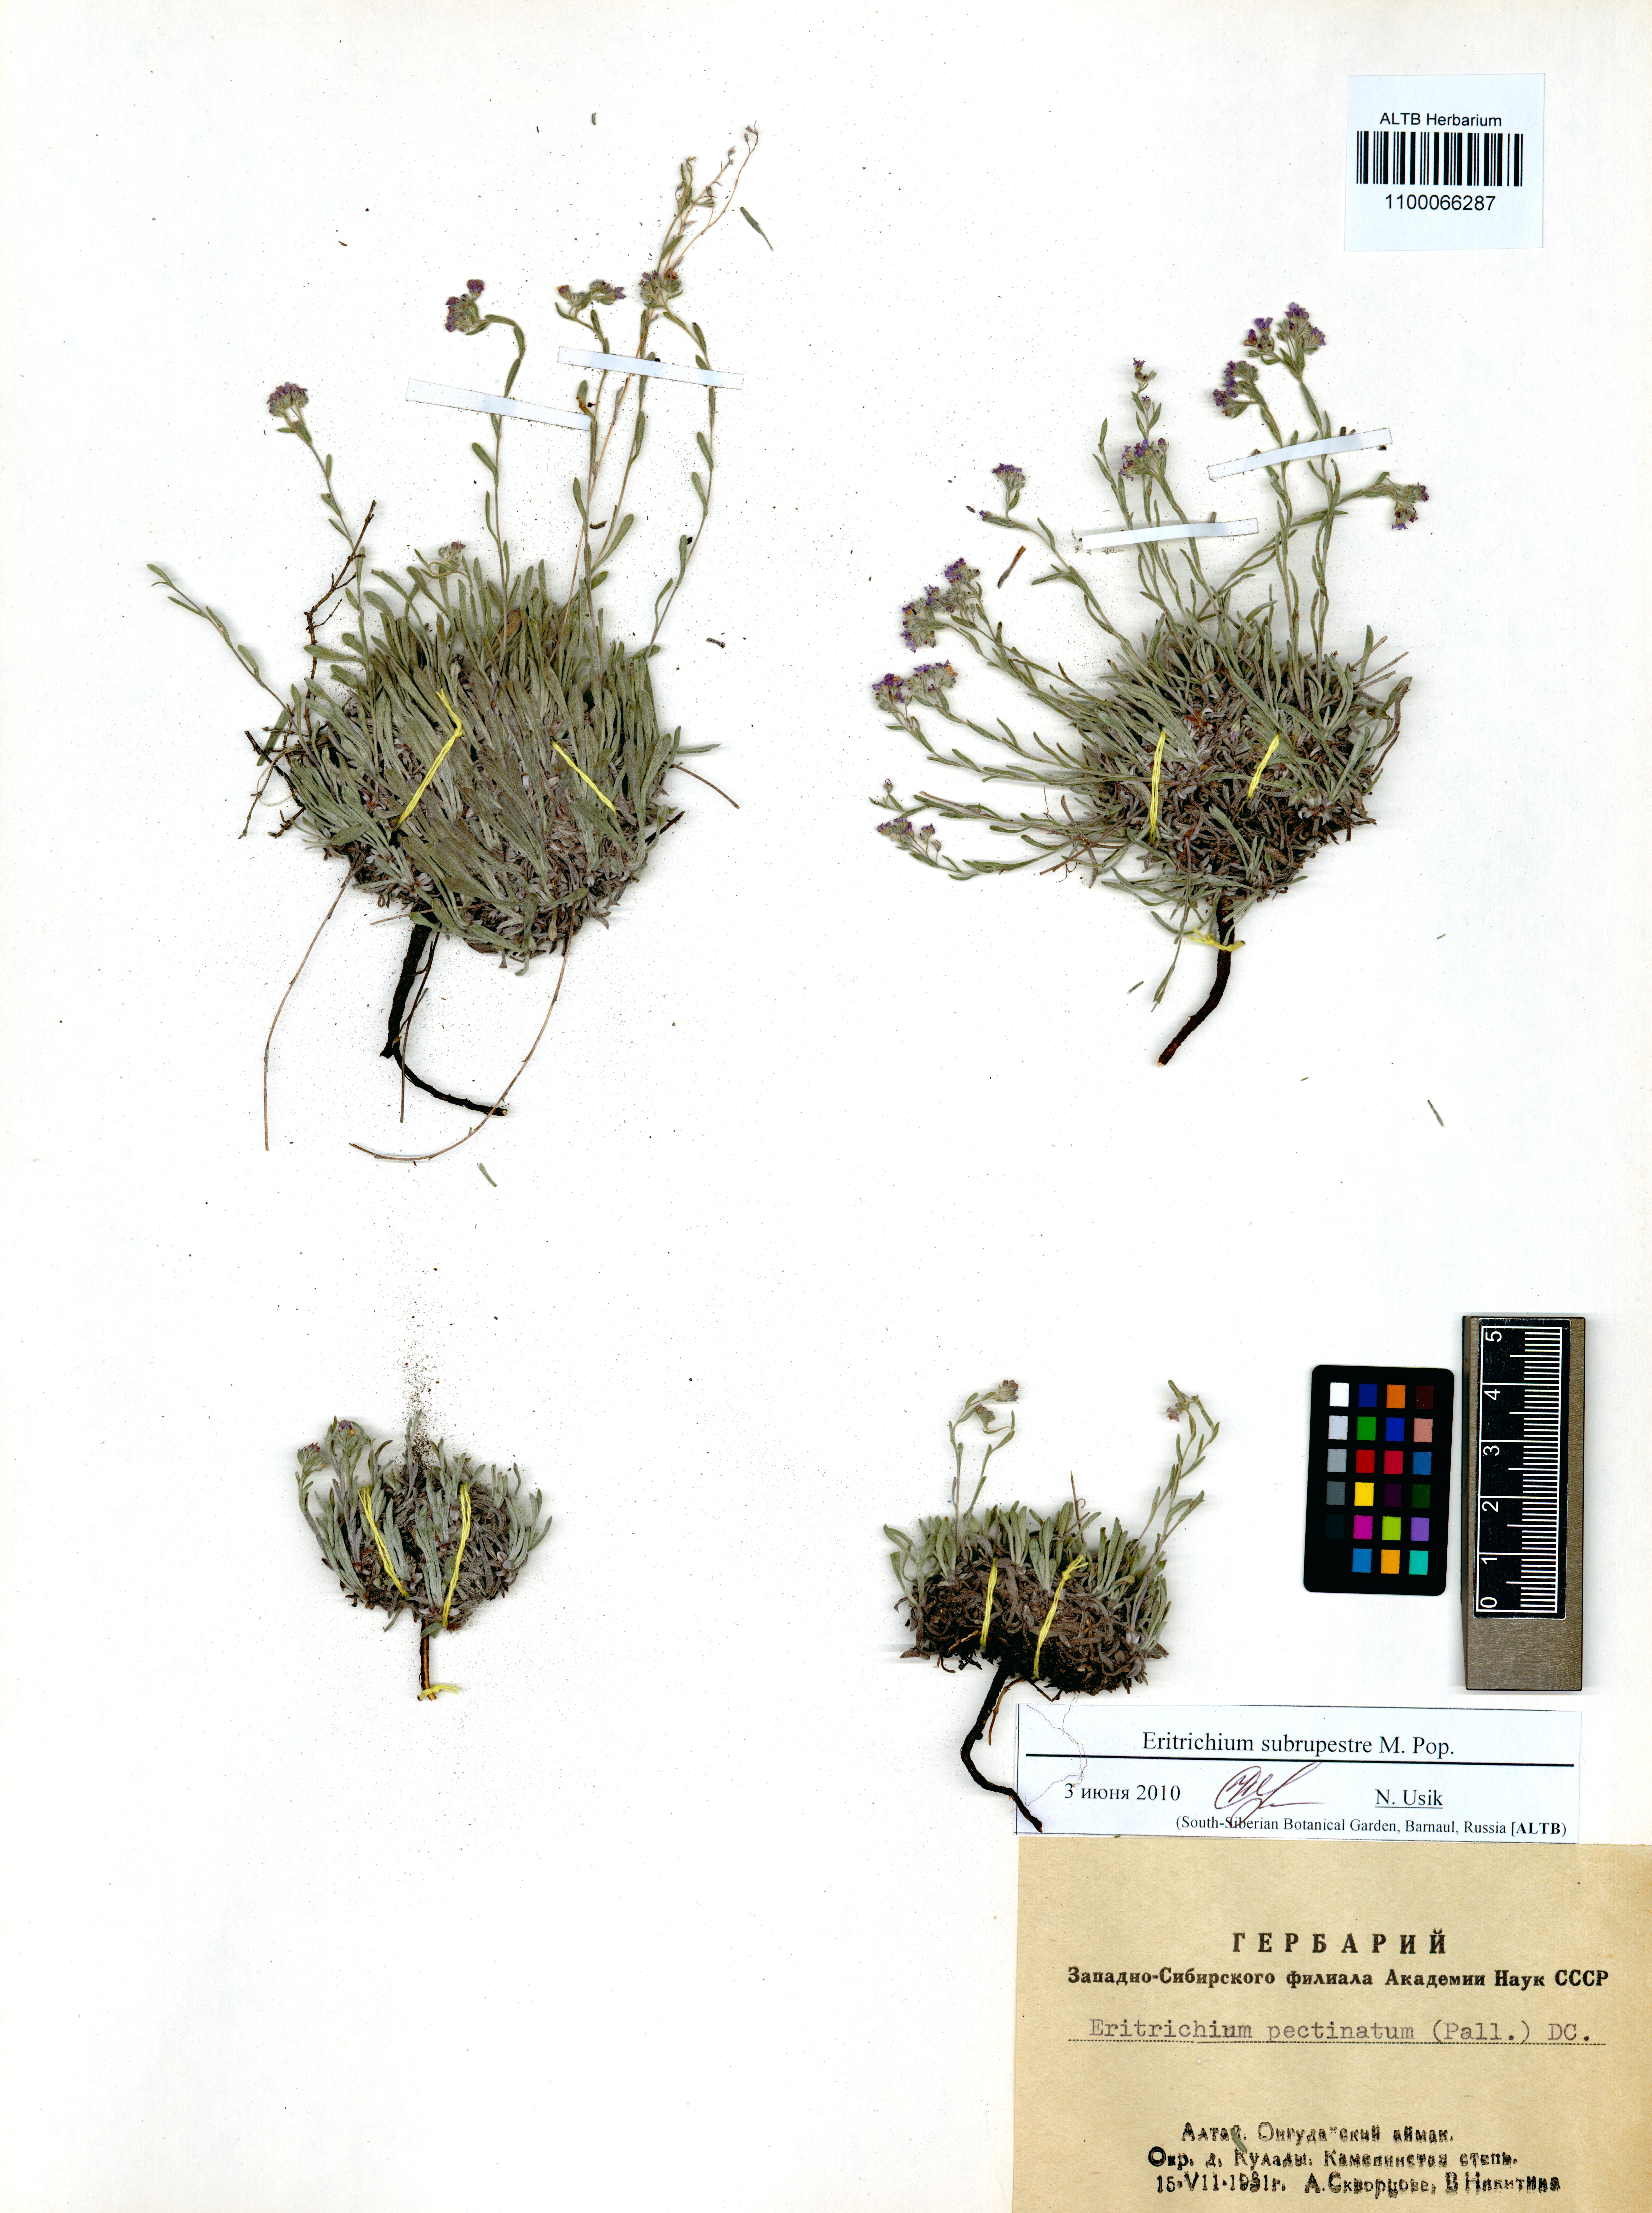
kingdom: Plantae
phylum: Tracheophyta
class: Magnoliopsida
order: Boraginales
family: Boraginaceae
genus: Eritrichium
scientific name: Eritrichium pauciflorum
